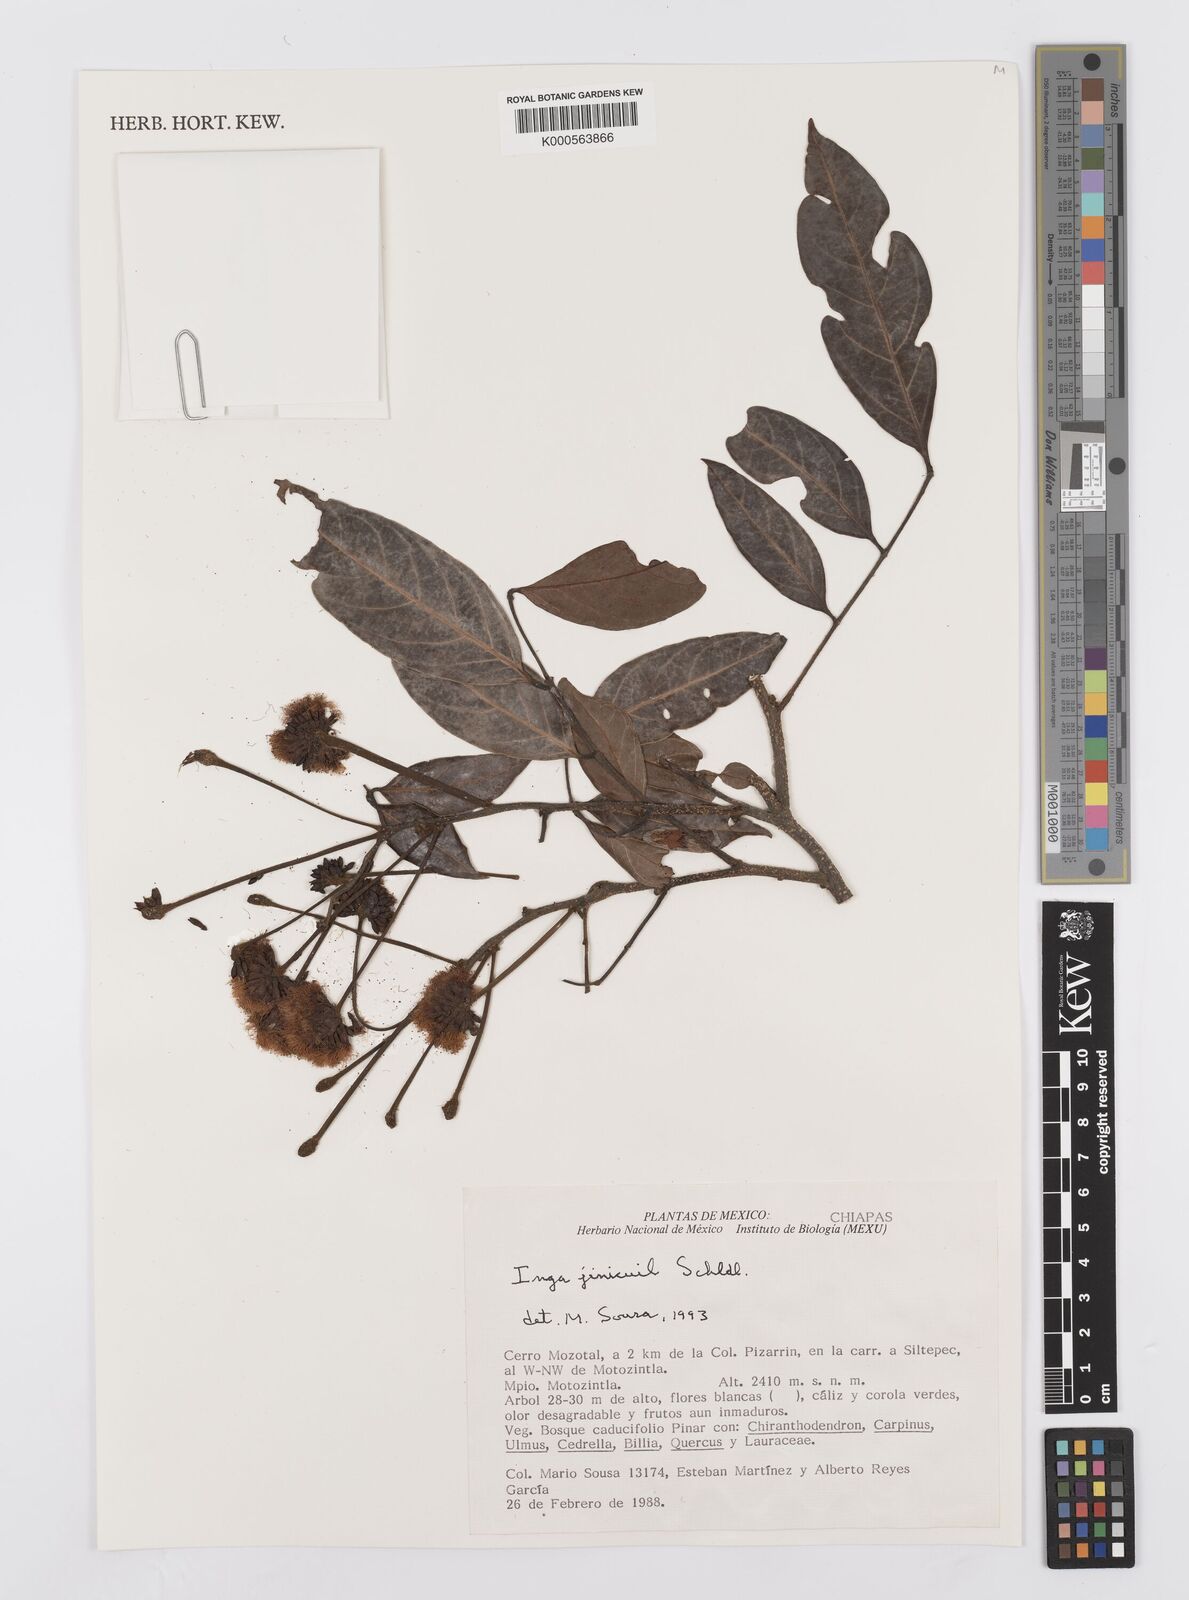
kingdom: Plantae
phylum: Tracheophyta
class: Magnoliopsida
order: Fabales
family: Fabaceae
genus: Inga
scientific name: Inga inicuil
